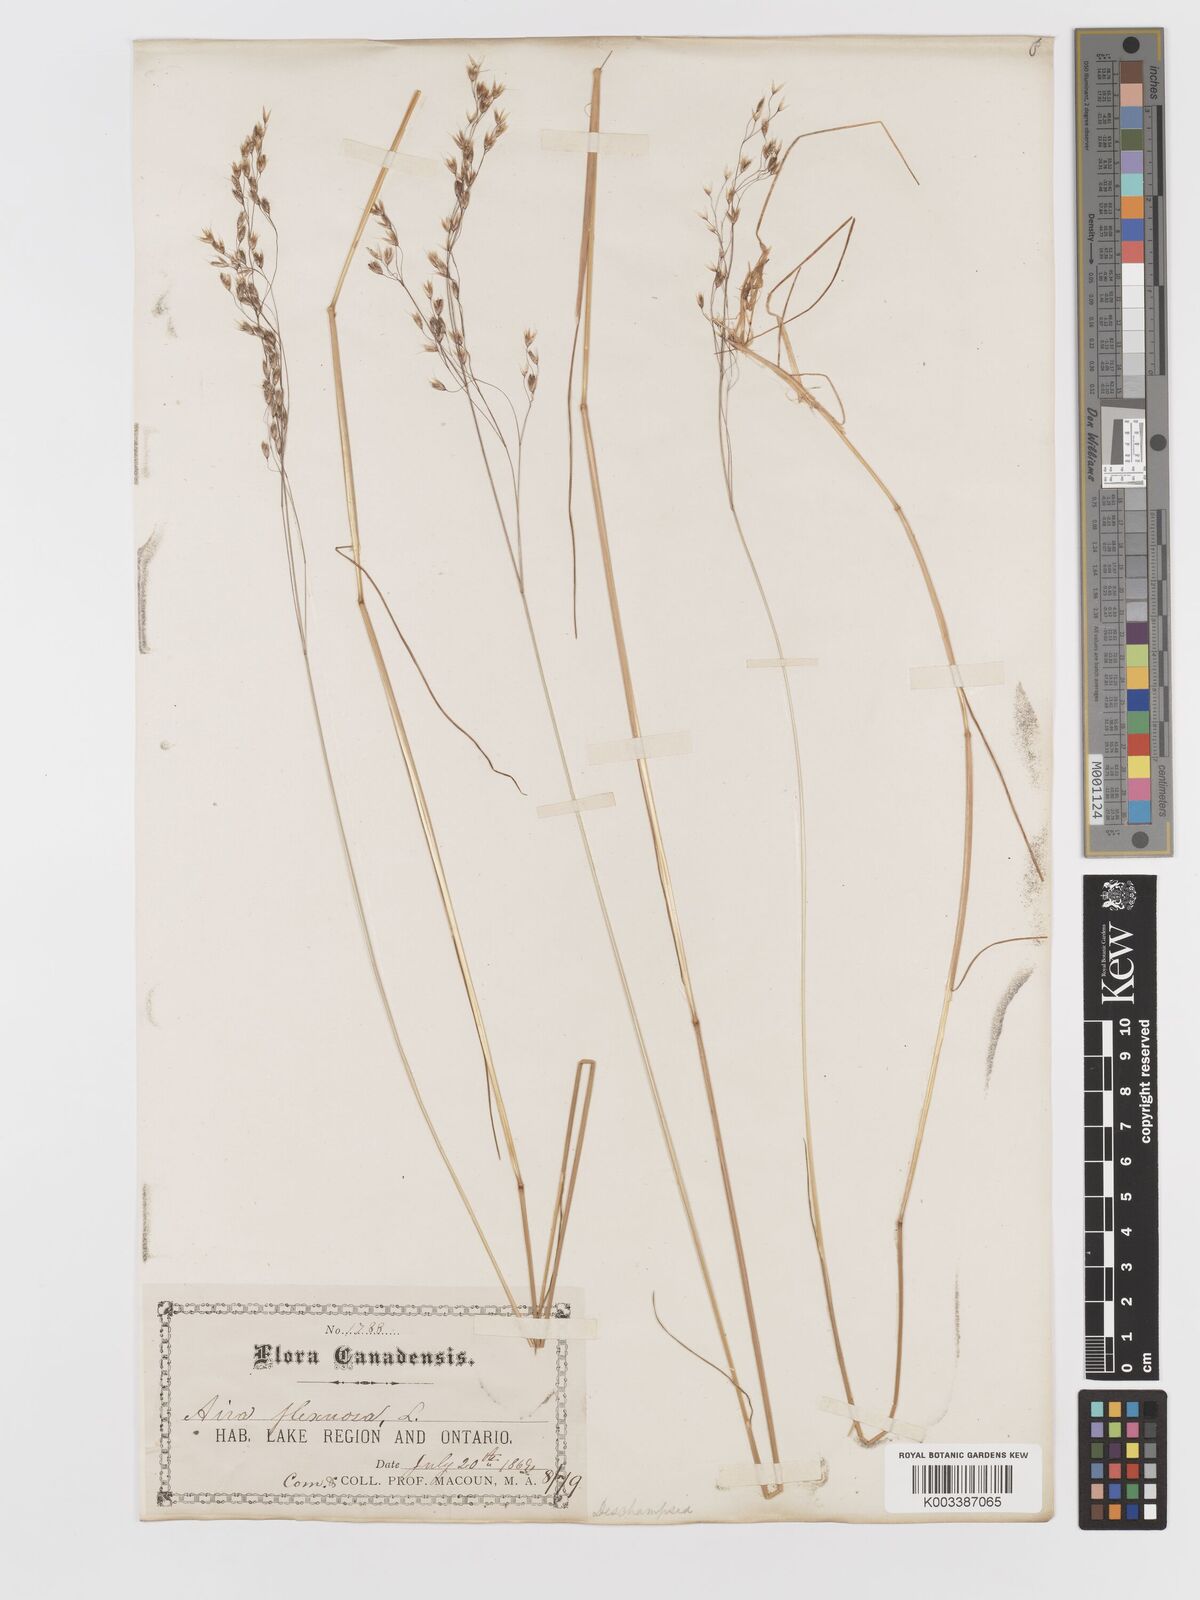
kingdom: Plantae
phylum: Tracheophyta
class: Liliopsida
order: Poales
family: Poaceae
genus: Avenella
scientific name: Avenella flexuosa
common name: Wavy hairgrass
